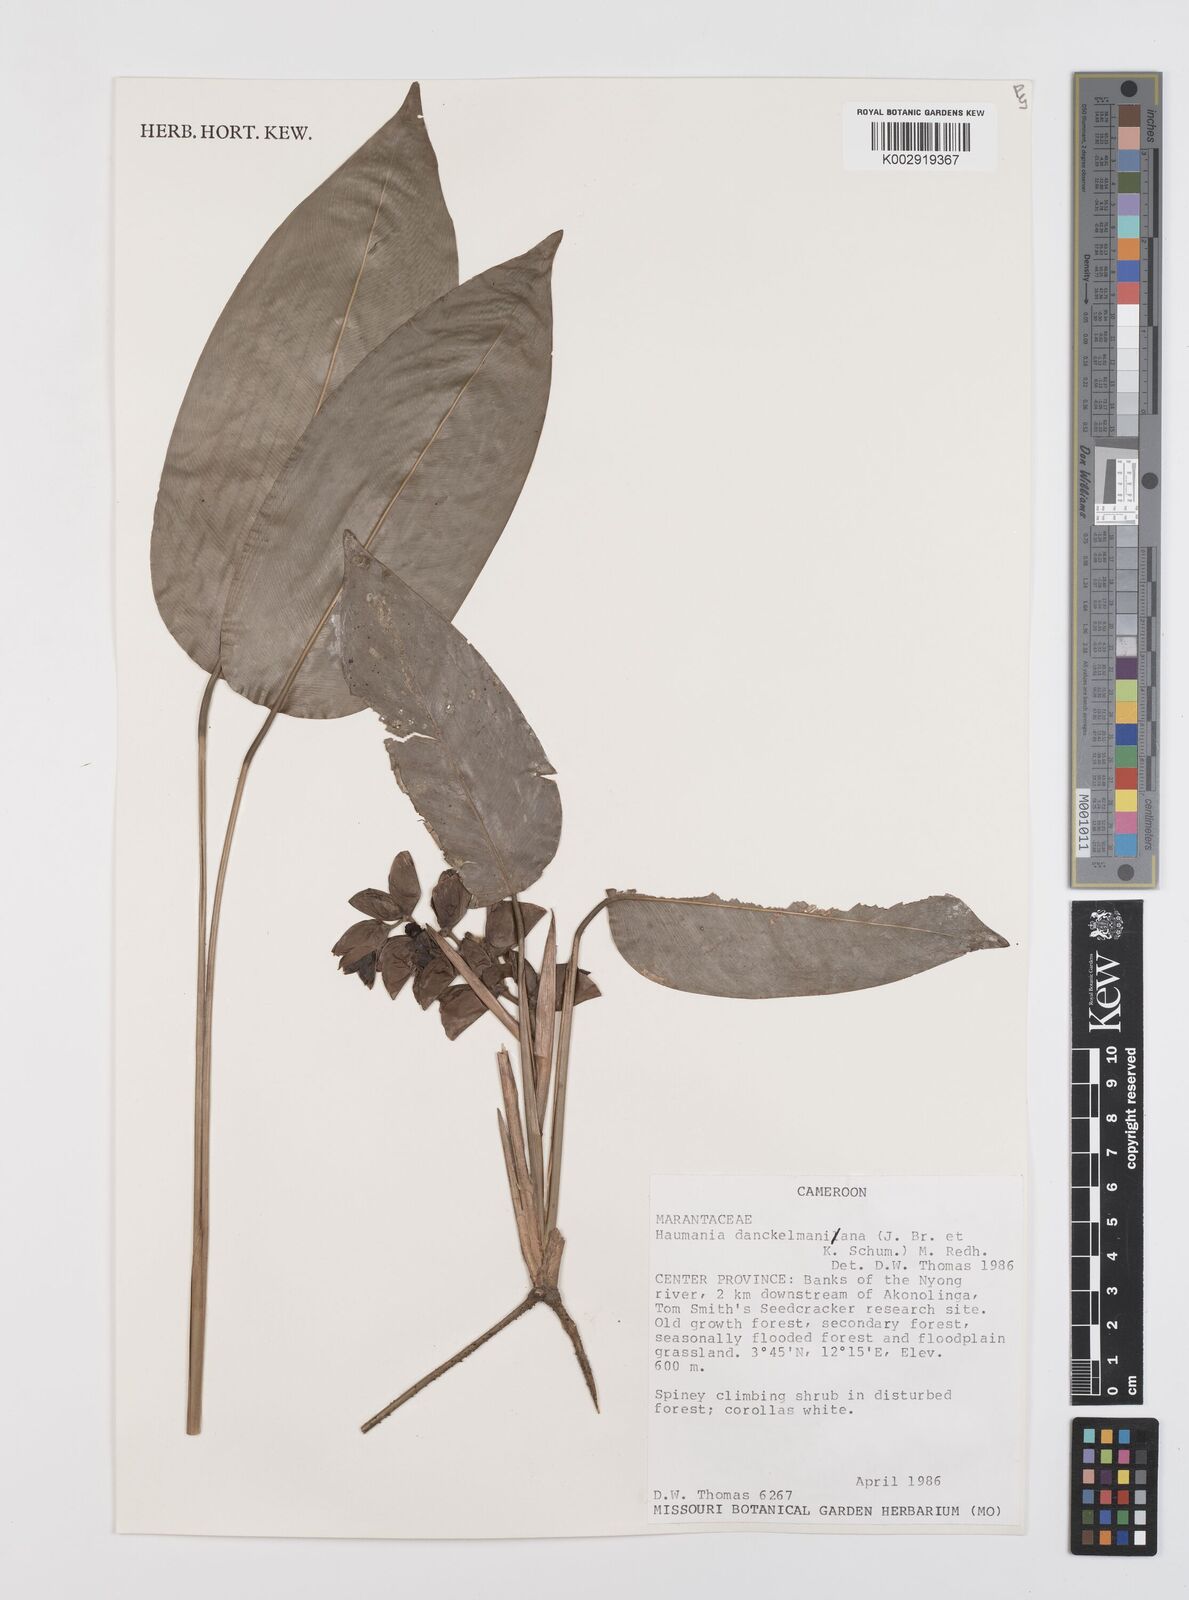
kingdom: Plantae
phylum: Tracheophyta
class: Liliopsida
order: Zingiberales
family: Marantaceae
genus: Haumania
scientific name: Haumania danckelmaniana
